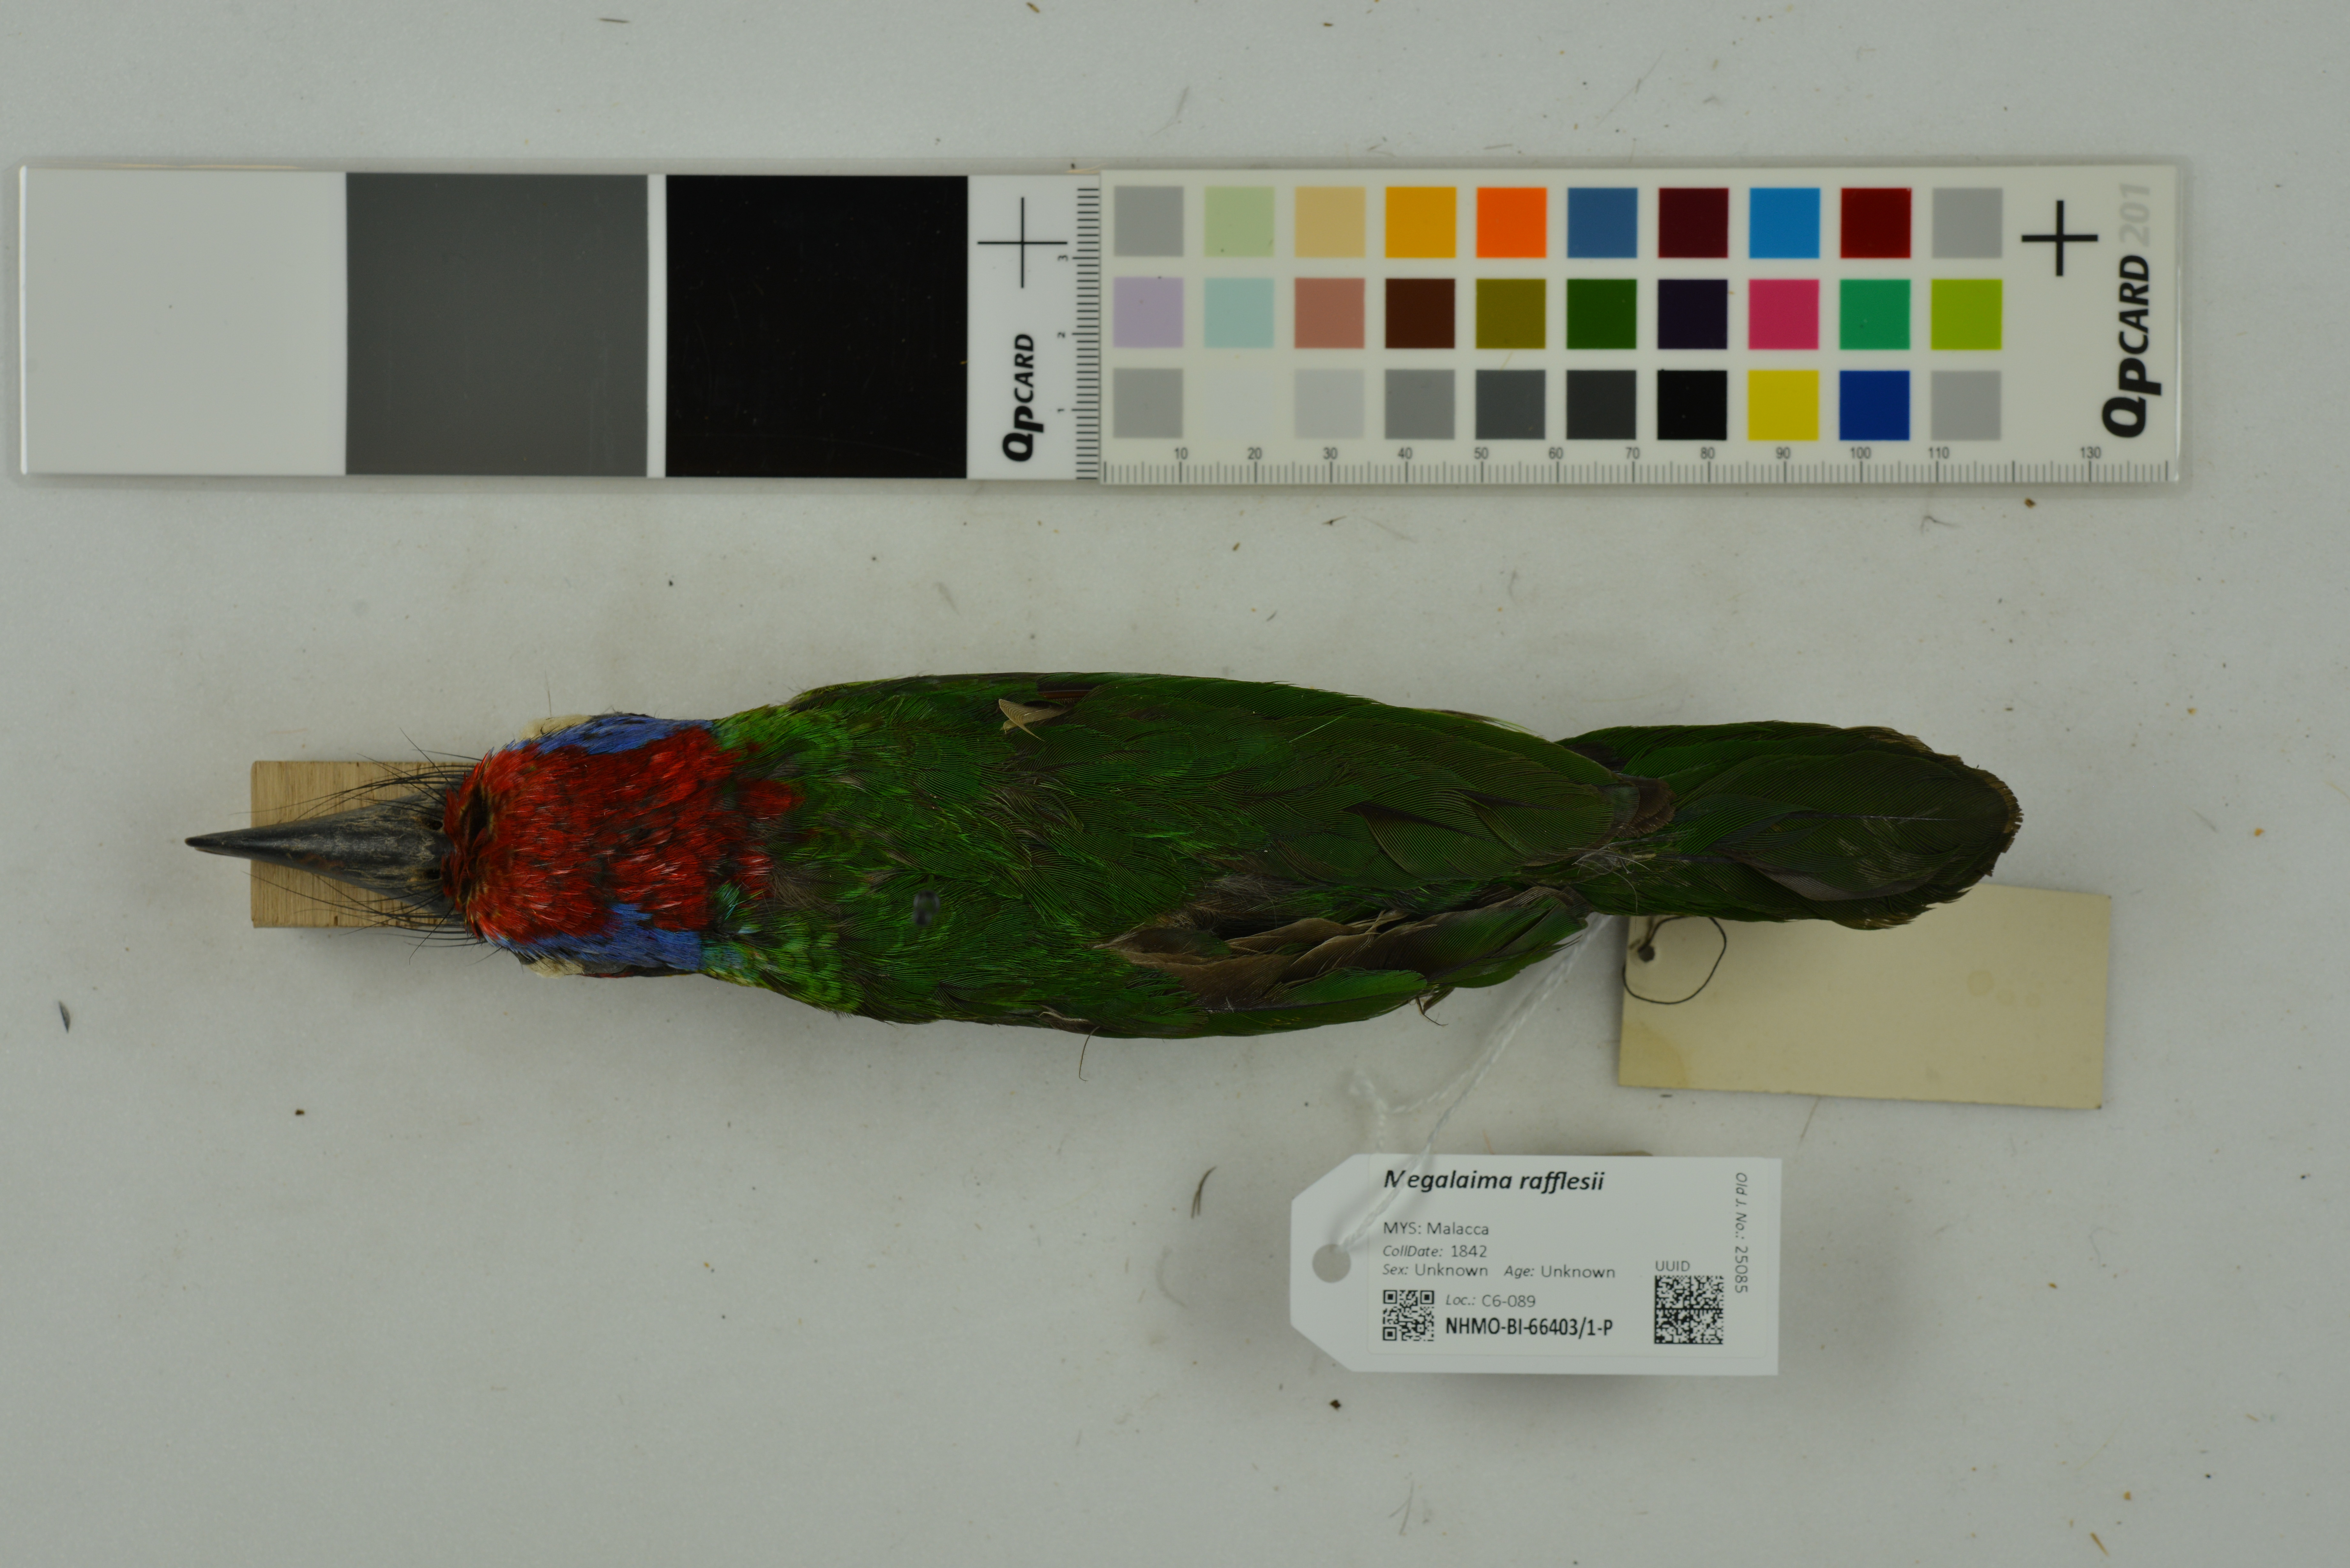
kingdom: Animalia
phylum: Chordata
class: Aves
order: Piciformes
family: Megalaimidae
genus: Psilopogon
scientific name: Psilopogon rafflesii
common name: Red-crowned barbet
